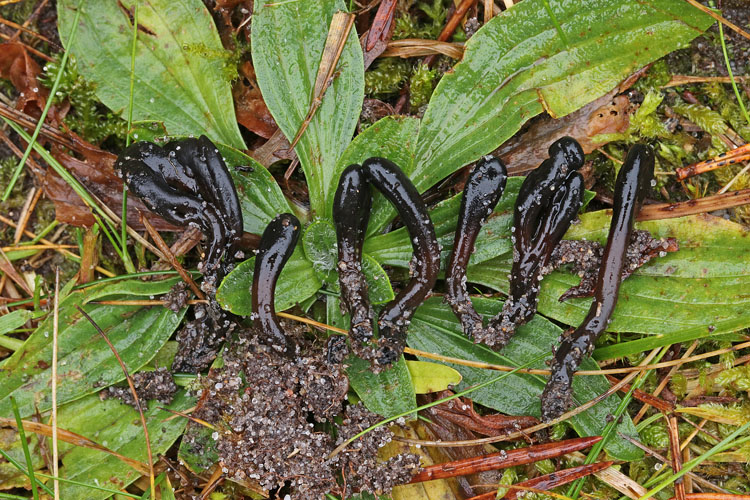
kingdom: Fungi
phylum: Ascomycota
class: Geoglossomycetes
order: Geoglossales
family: Geoglossaceae
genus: Glutinoglossum
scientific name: Glutinoglossum glutinosum
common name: slimet jordtunge
